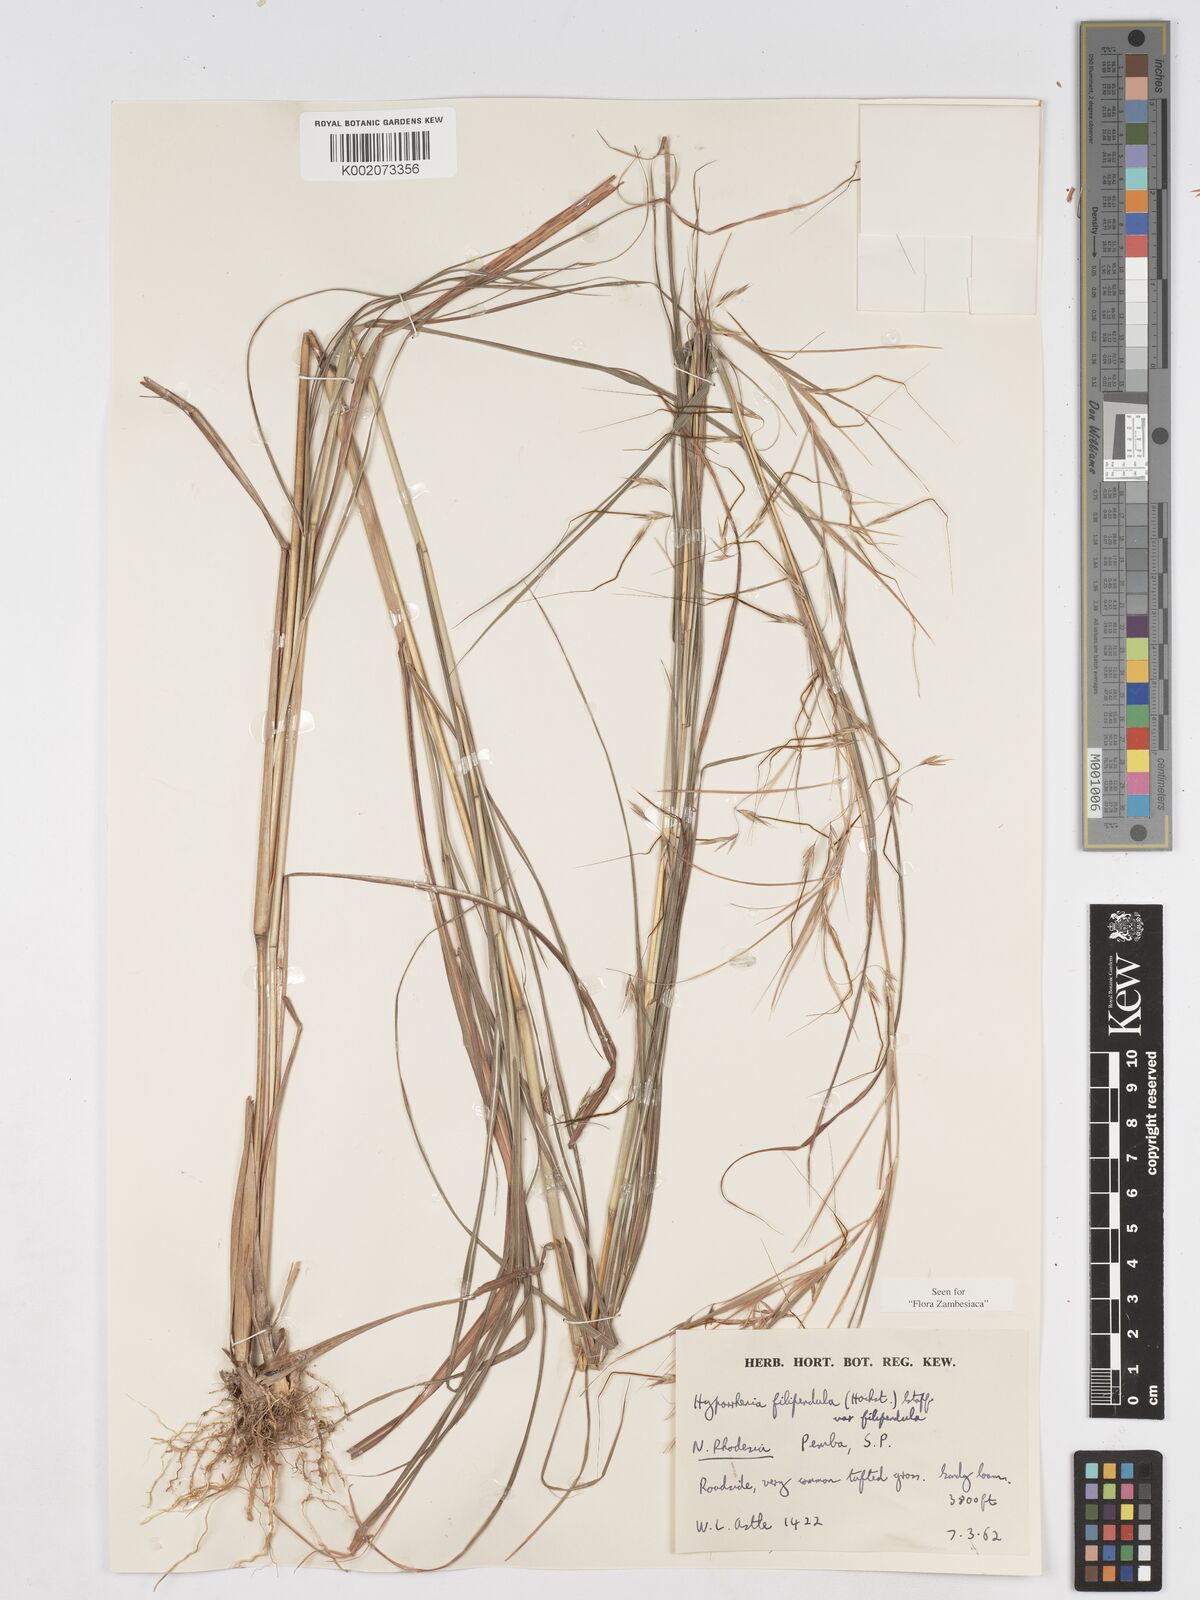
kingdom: Plantae
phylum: Tracheophyta
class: Liliopsida
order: Poales
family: Poaceae
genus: Hyparrhenia
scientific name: Hyparrhenia filipendula
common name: Tambookie grass
